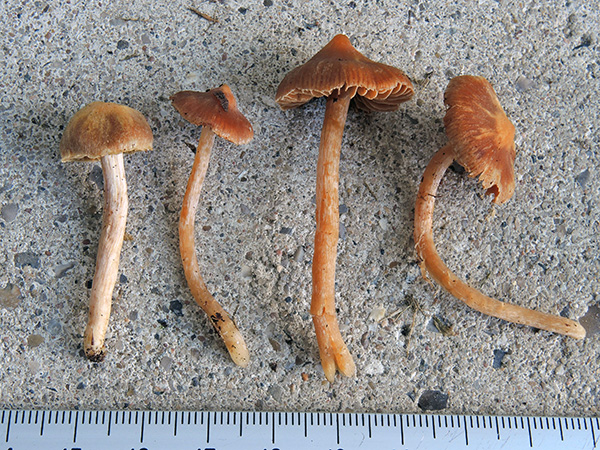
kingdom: Fungi
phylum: Basidiomycota
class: Agaricomycetes
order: Agaricales
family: Cortinariaceae
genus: Cortinarius
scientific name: Cortinarius pseudocandelaris
